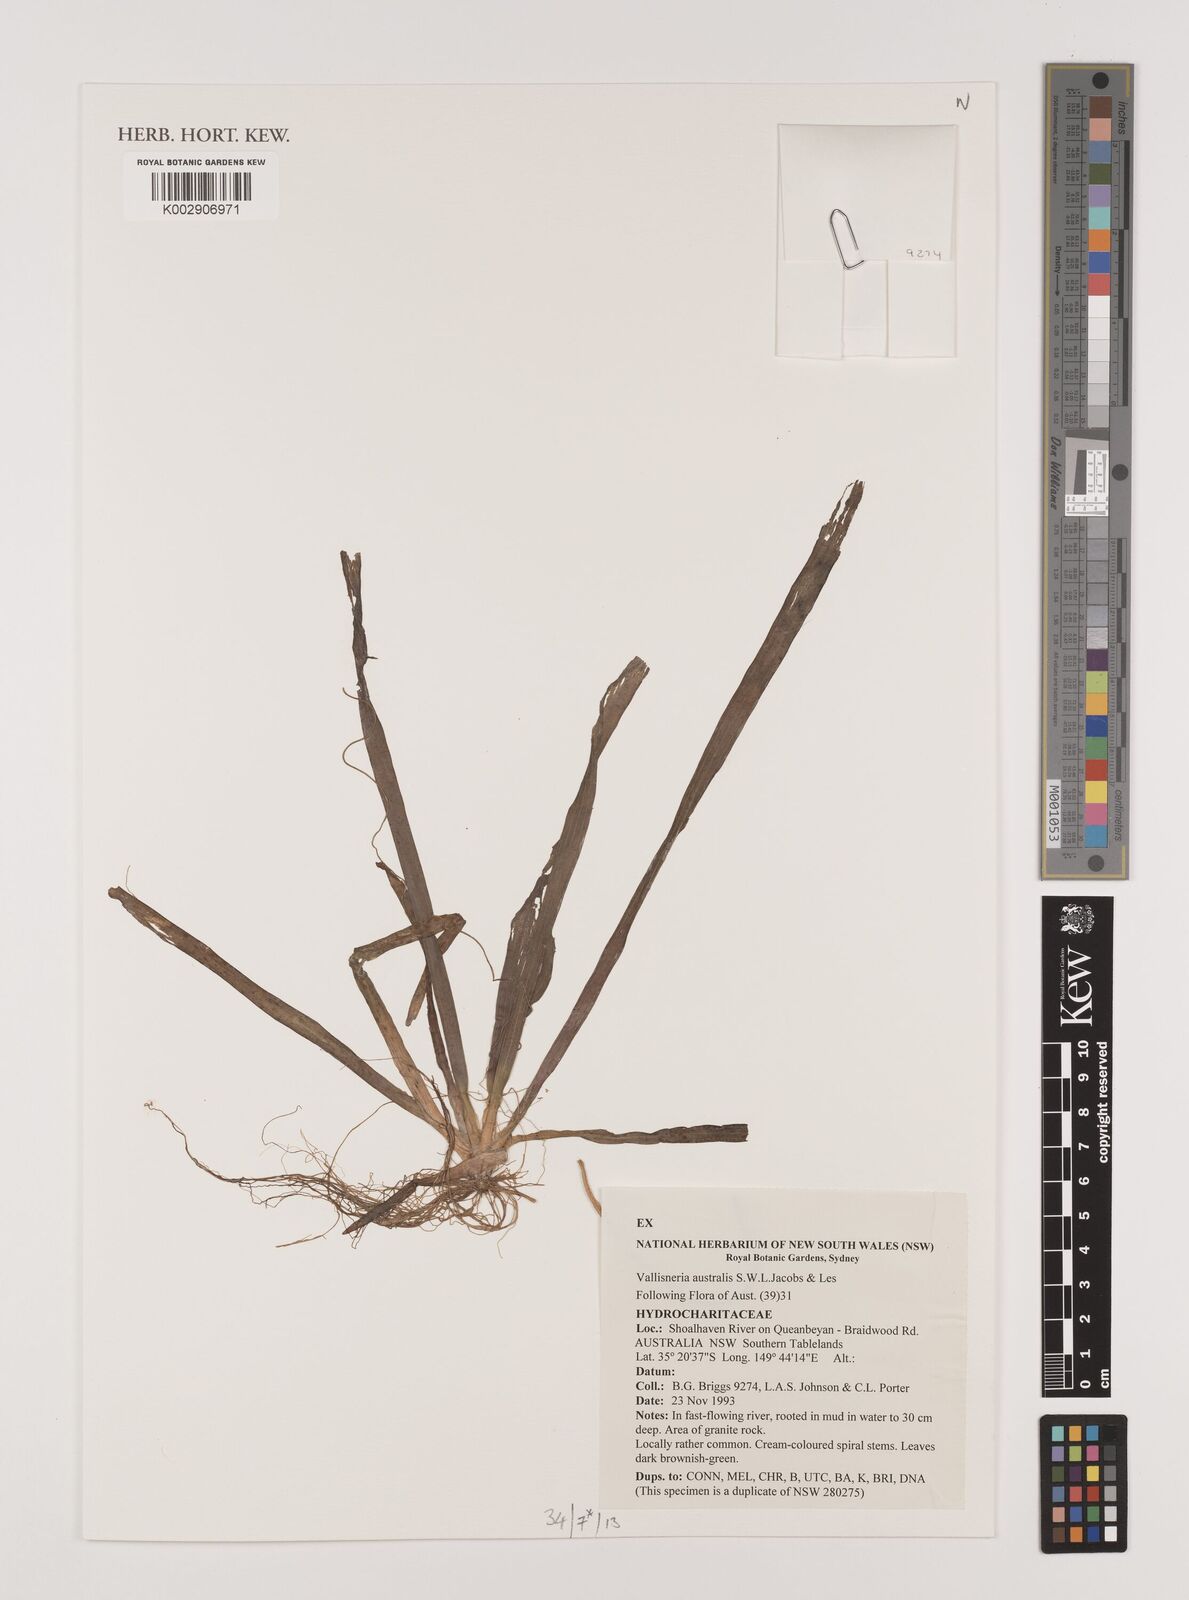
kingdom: Plantae
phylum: Tracheophyta
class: Liliopsida
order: Alismatales
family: Hydrocharitaceae
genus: Vallisneria
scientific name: Vallisneria australis
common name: Australian eelgrass
